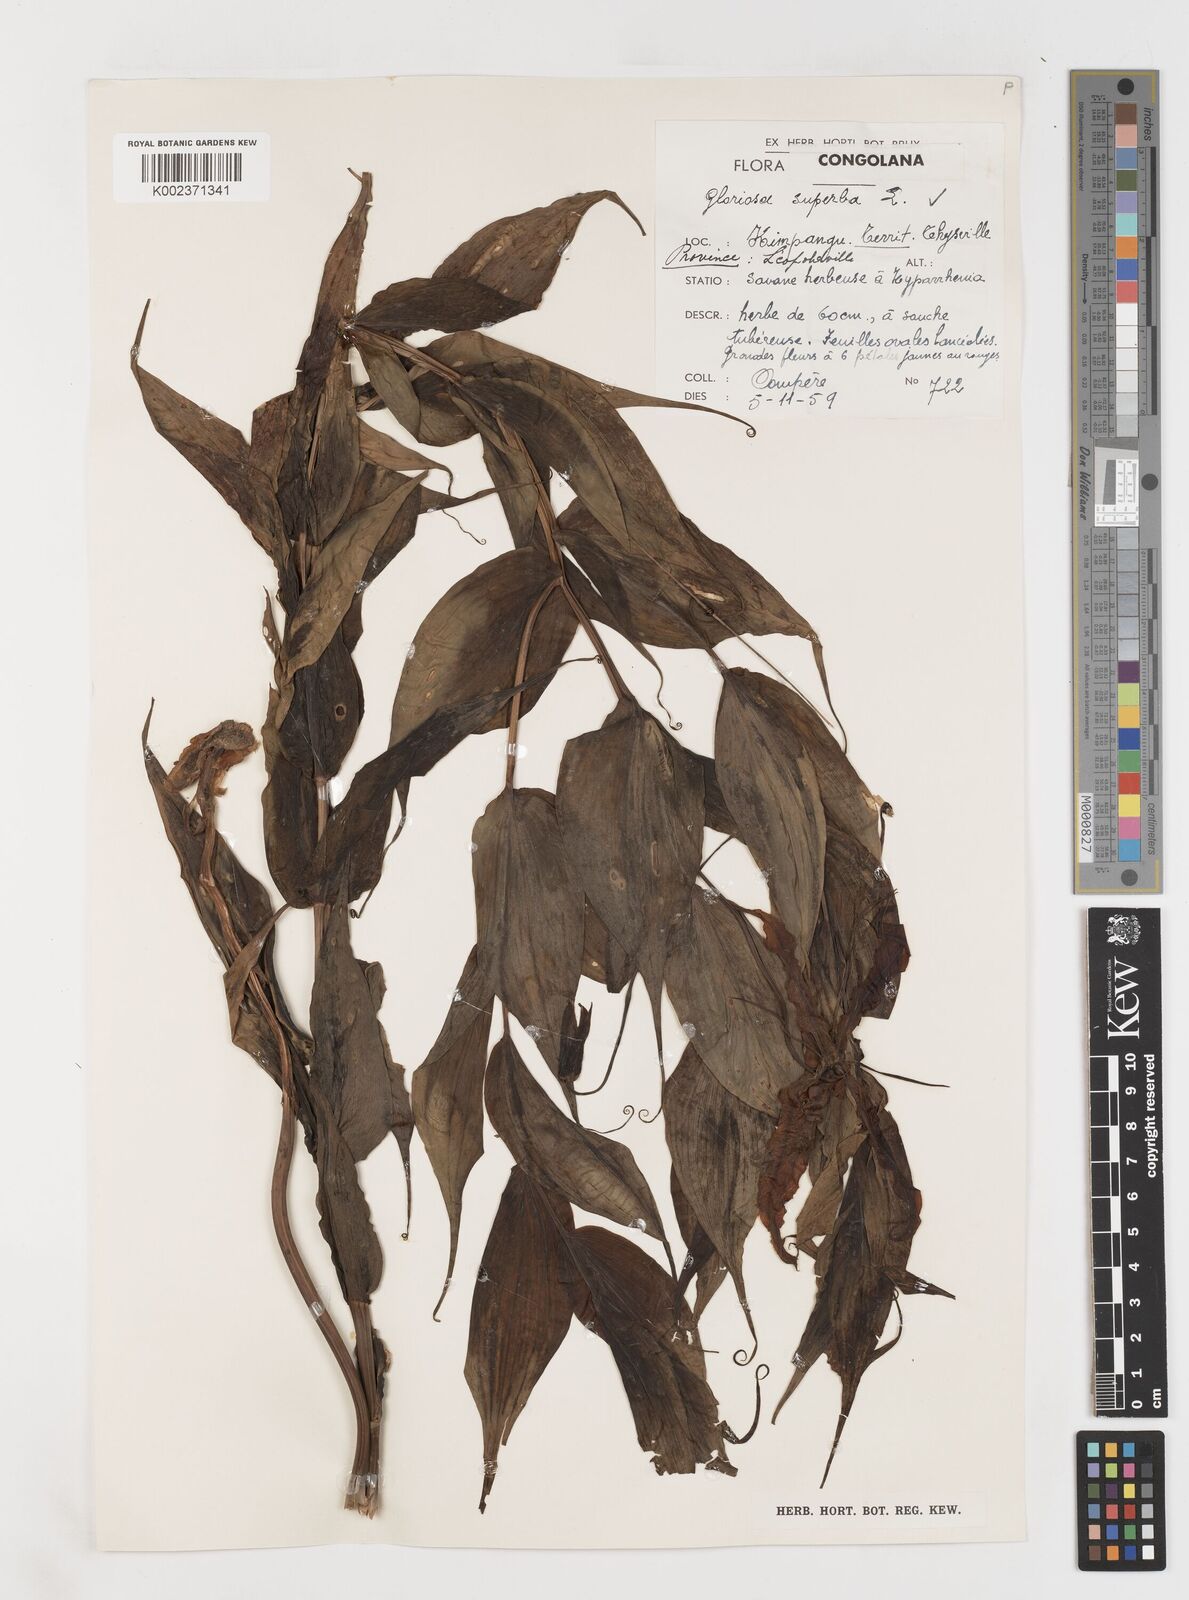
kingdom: Plantae
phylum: Tracheophyta
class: Liliopsida
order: Liliales
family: Colchicaceae
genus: Gloriosa
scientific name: Gloriosa superba
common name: Flame lily
